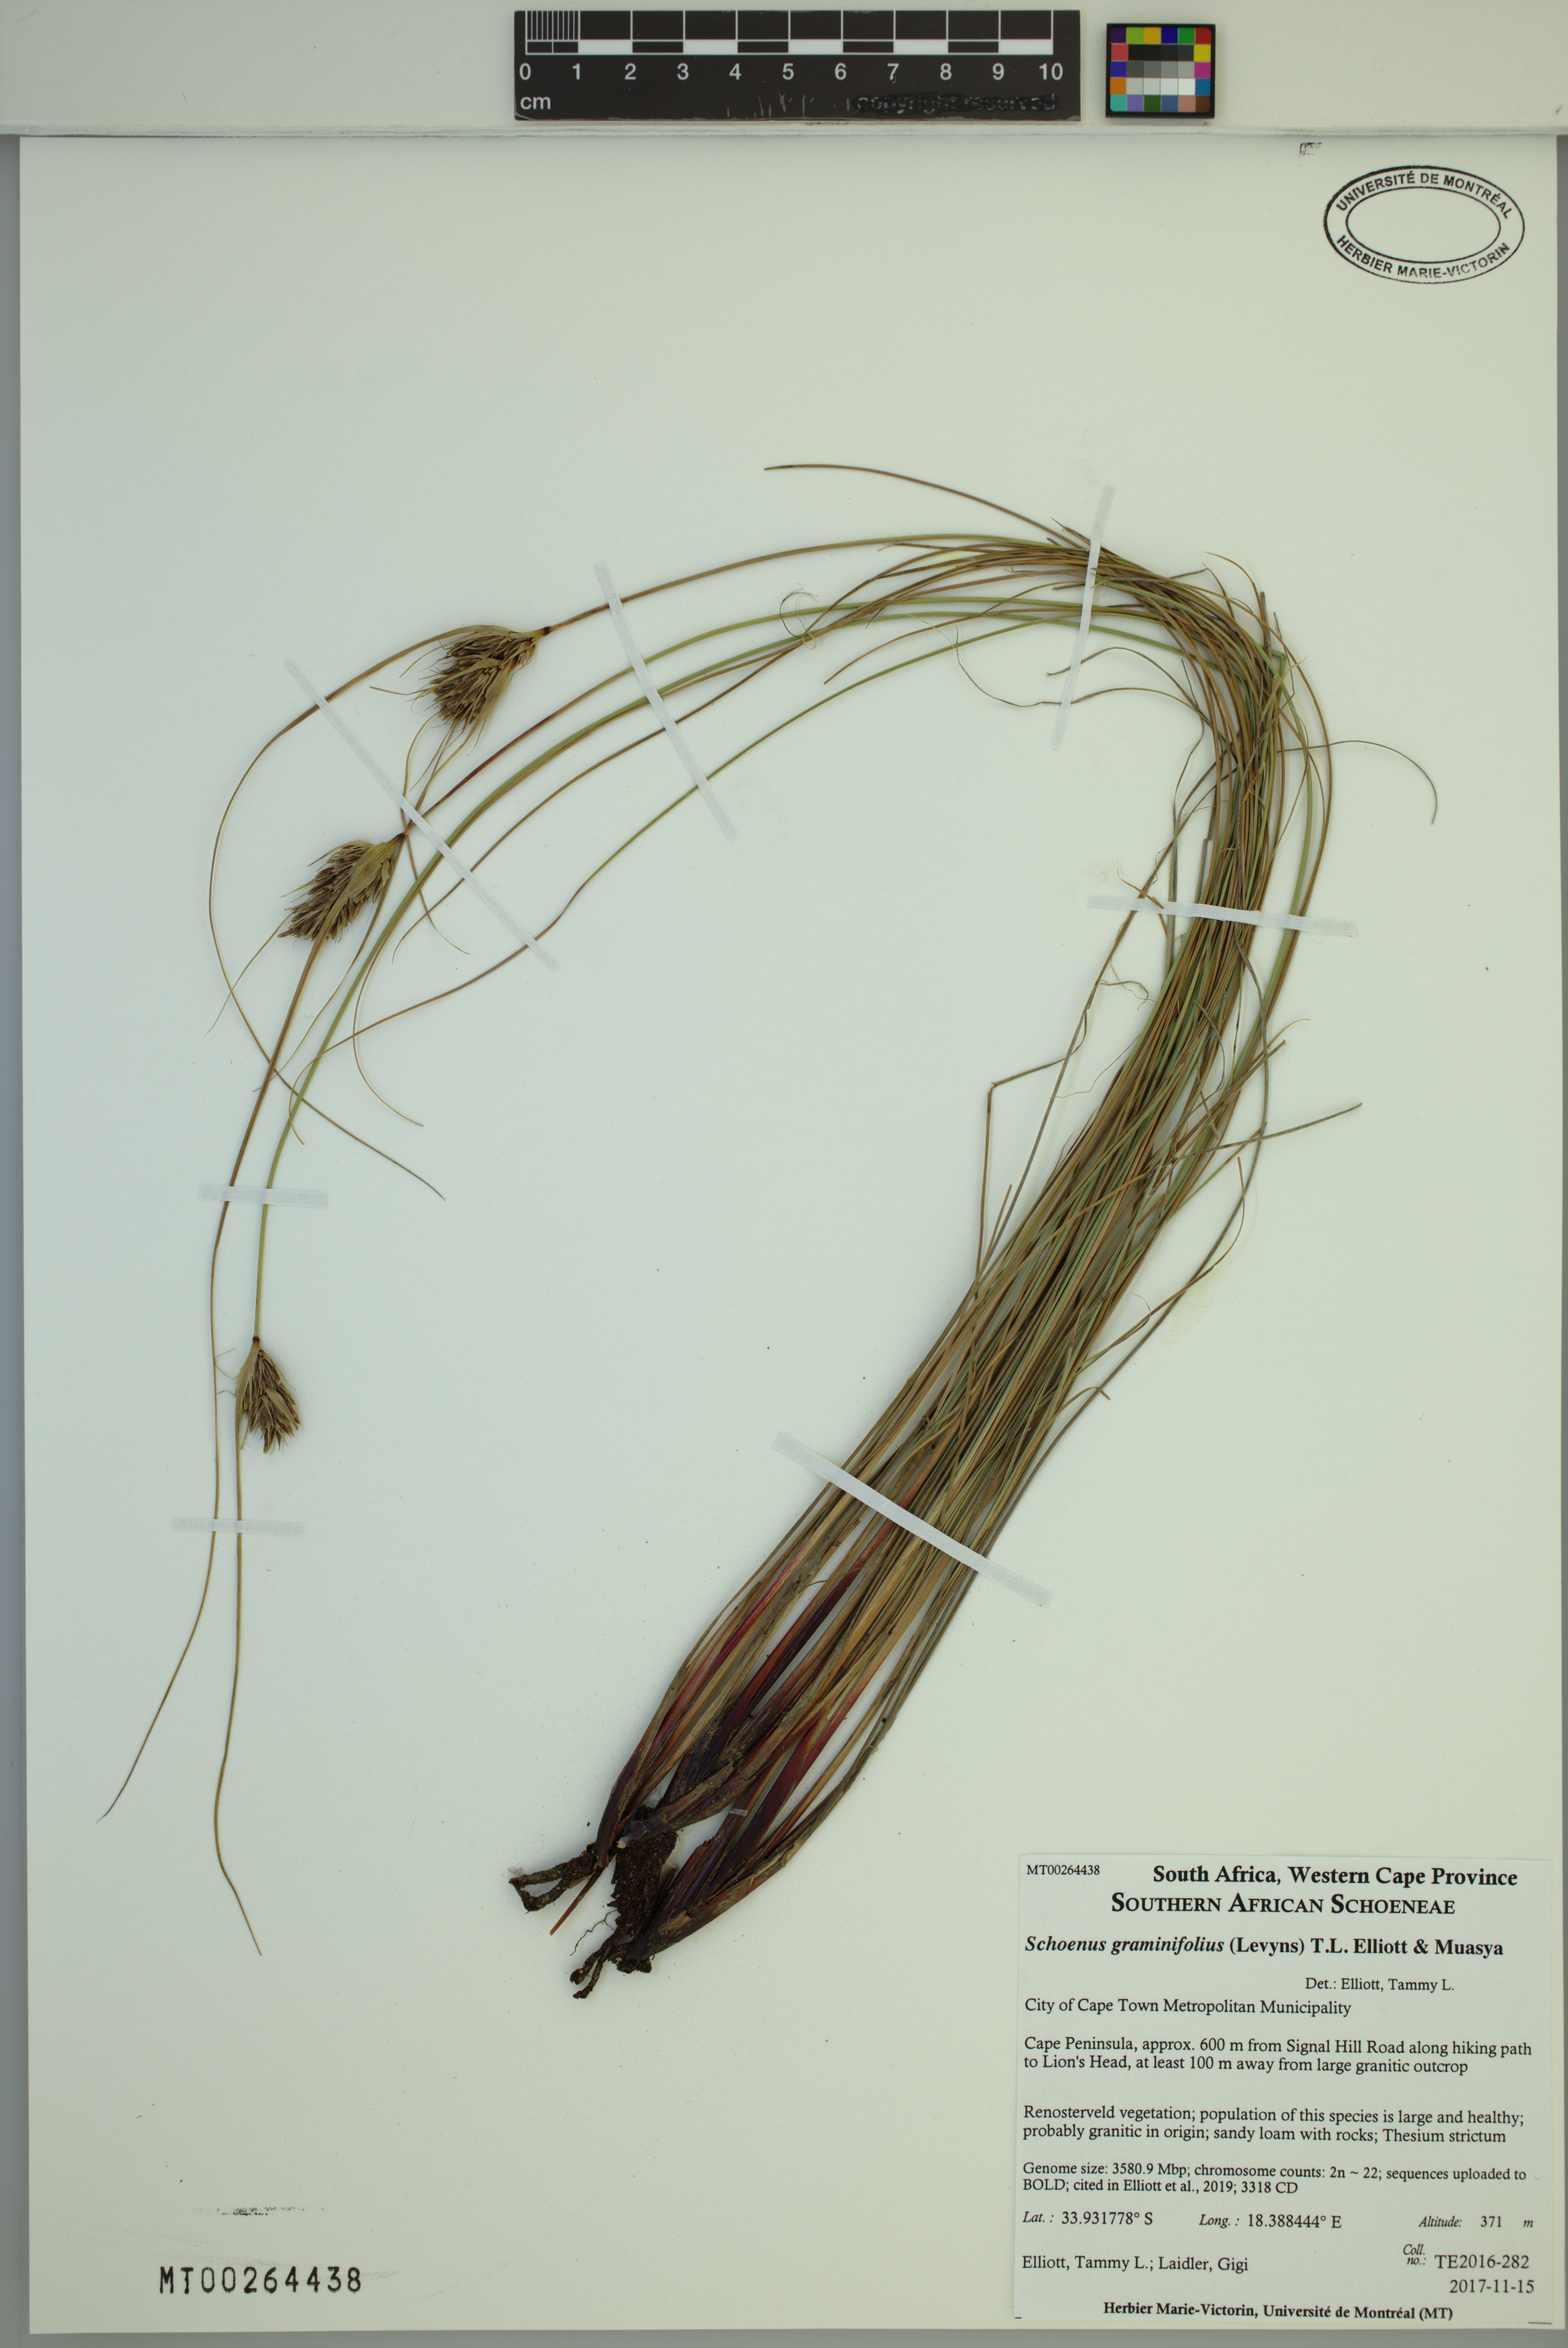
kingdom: Plantae
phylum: Tracheophyta
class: Liliopsida
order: Poales
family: Cyperaceae
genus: Schoenus
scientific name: Schoenus graminifolius
